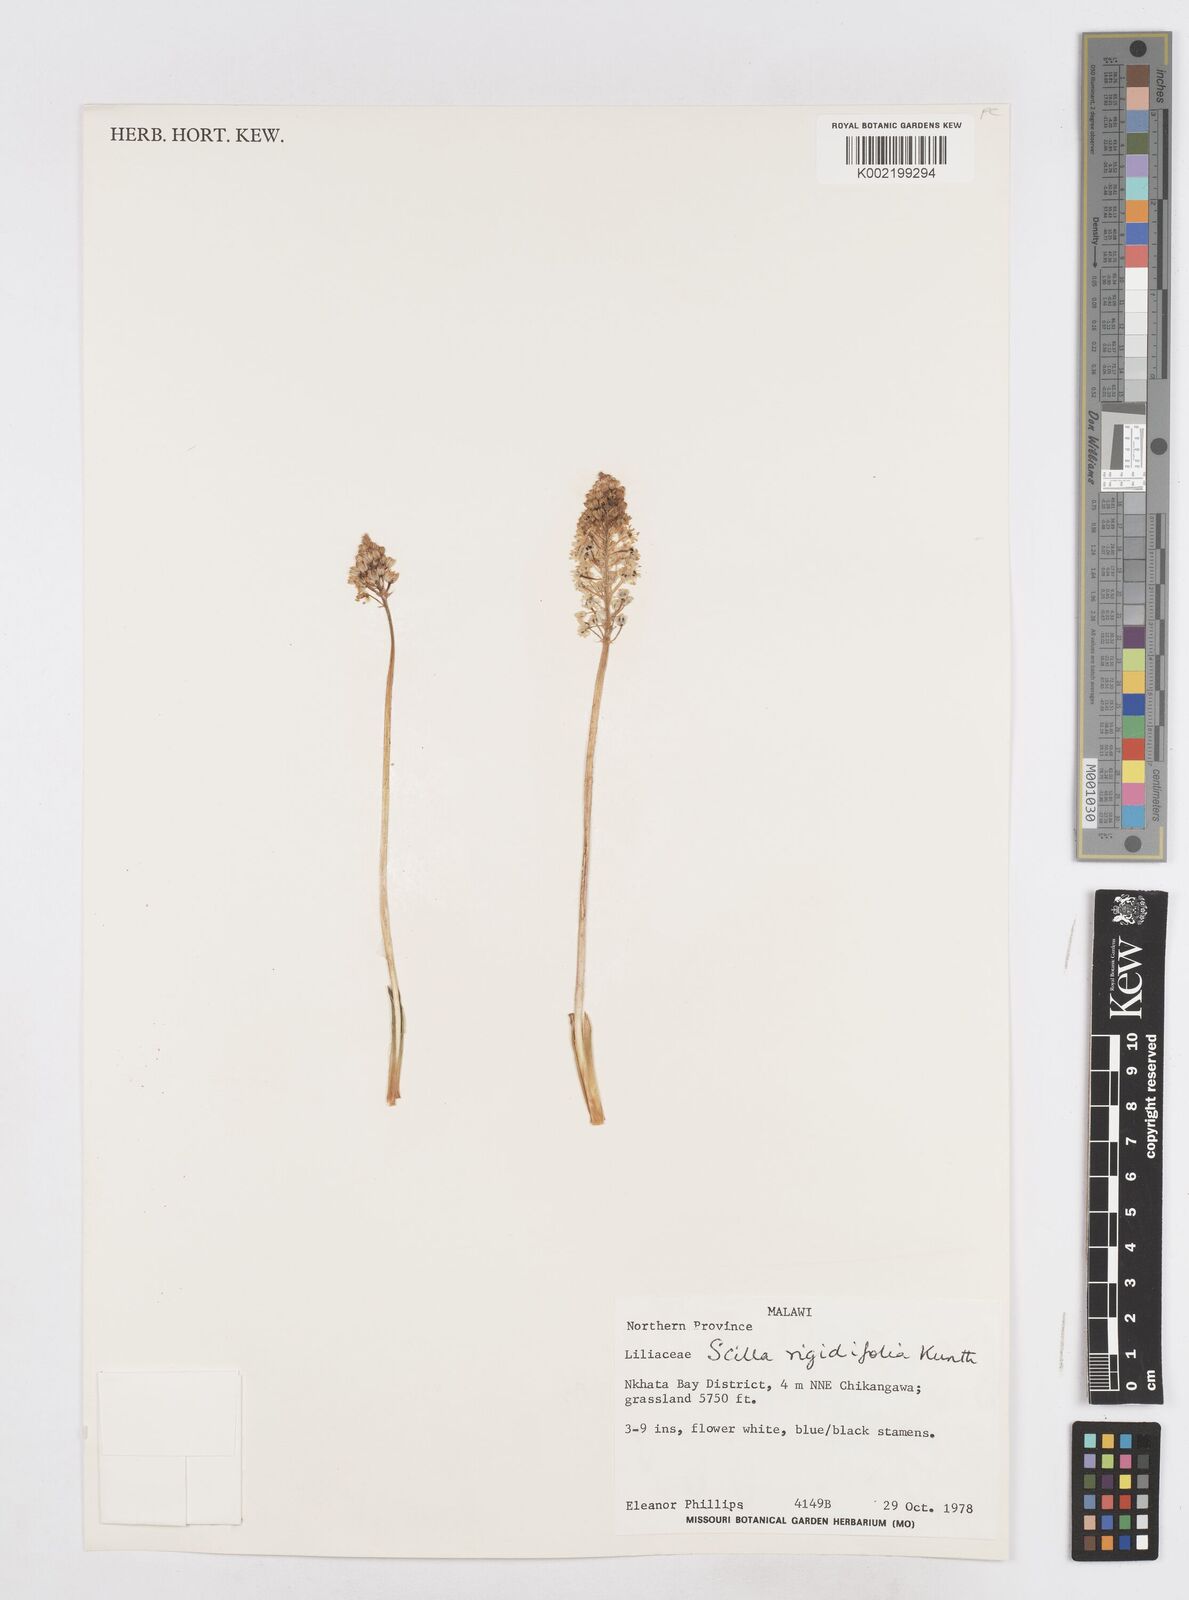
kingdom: Plantae
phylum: Tracheophyta
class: Liliopsida
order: Asparagales
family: Asparagaceae
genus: Schizocarphus
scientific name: Schizocarphus nervosus
